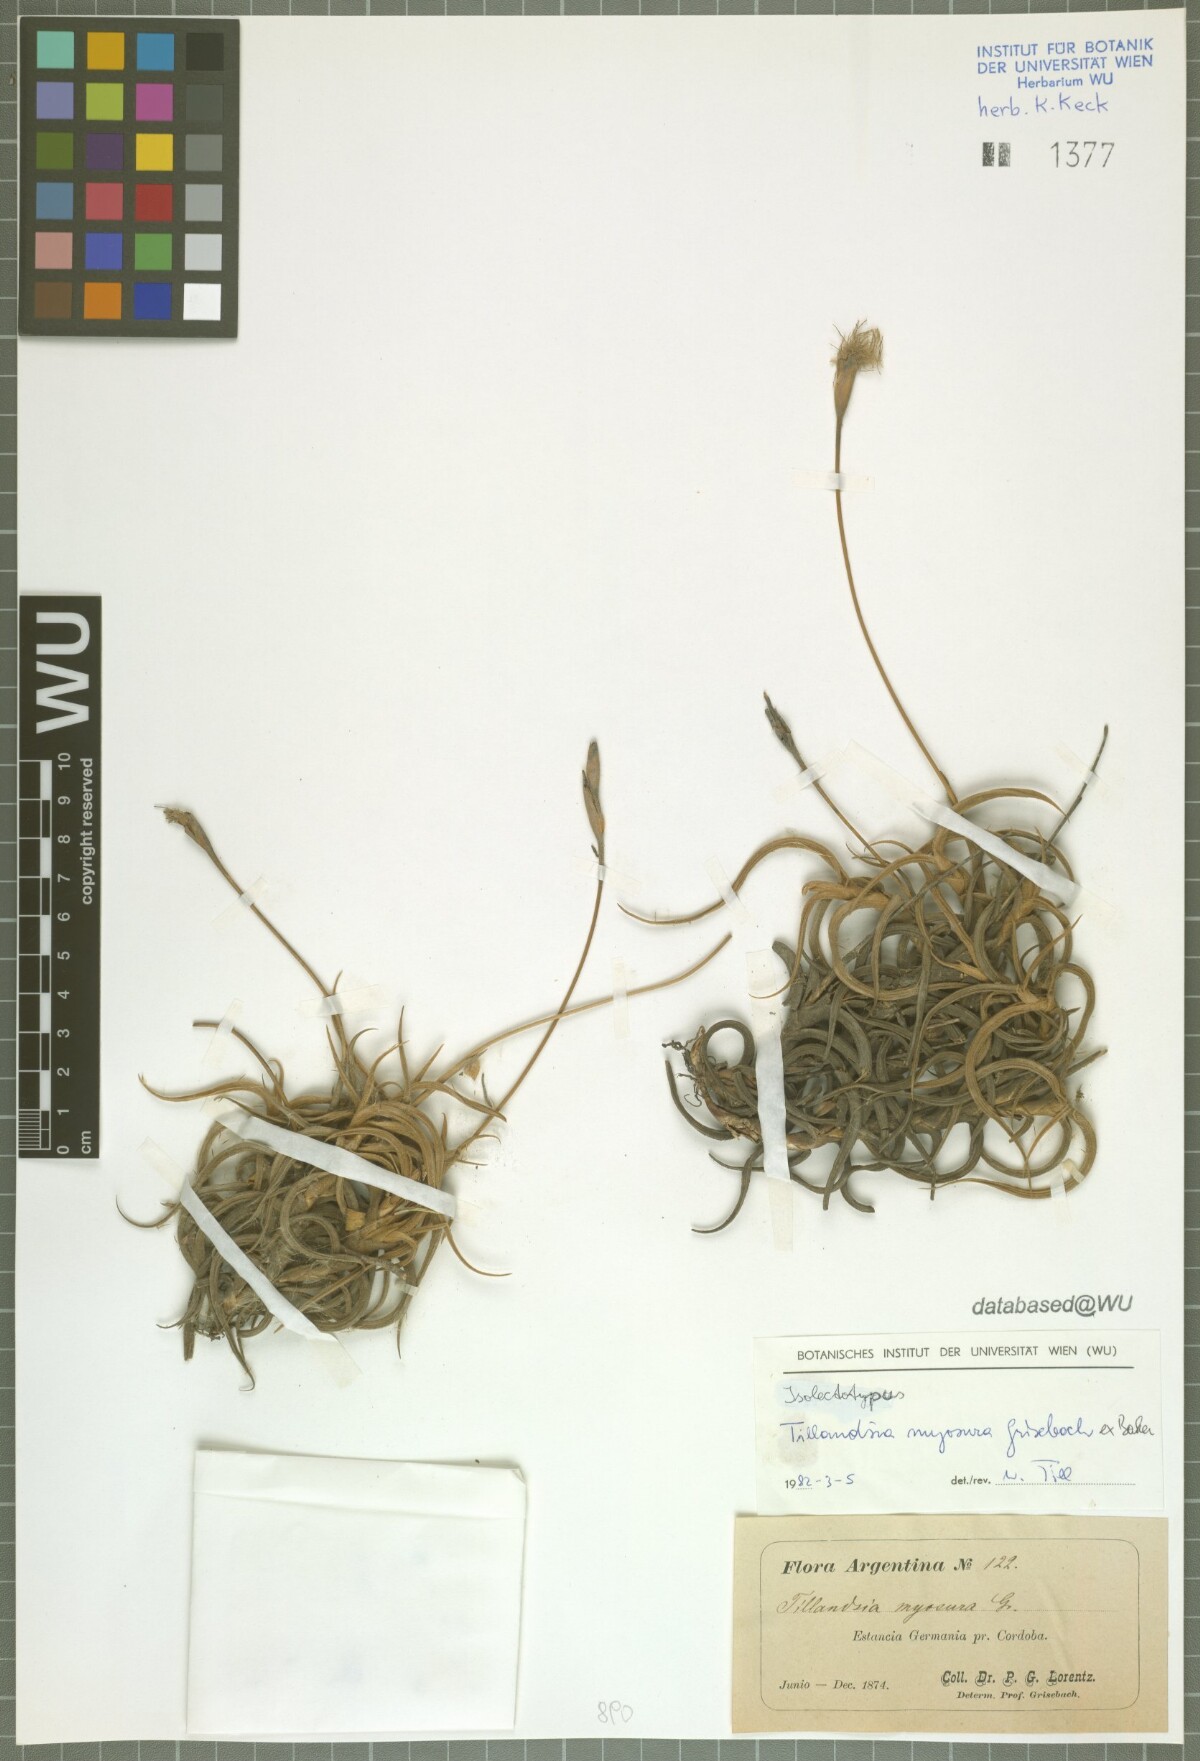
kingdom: Plantae
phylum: Tracheophyta
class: Liliopsida
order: Poales
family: Bromeliaceae
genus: Tillandsia
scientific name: Tillandsia myosura
